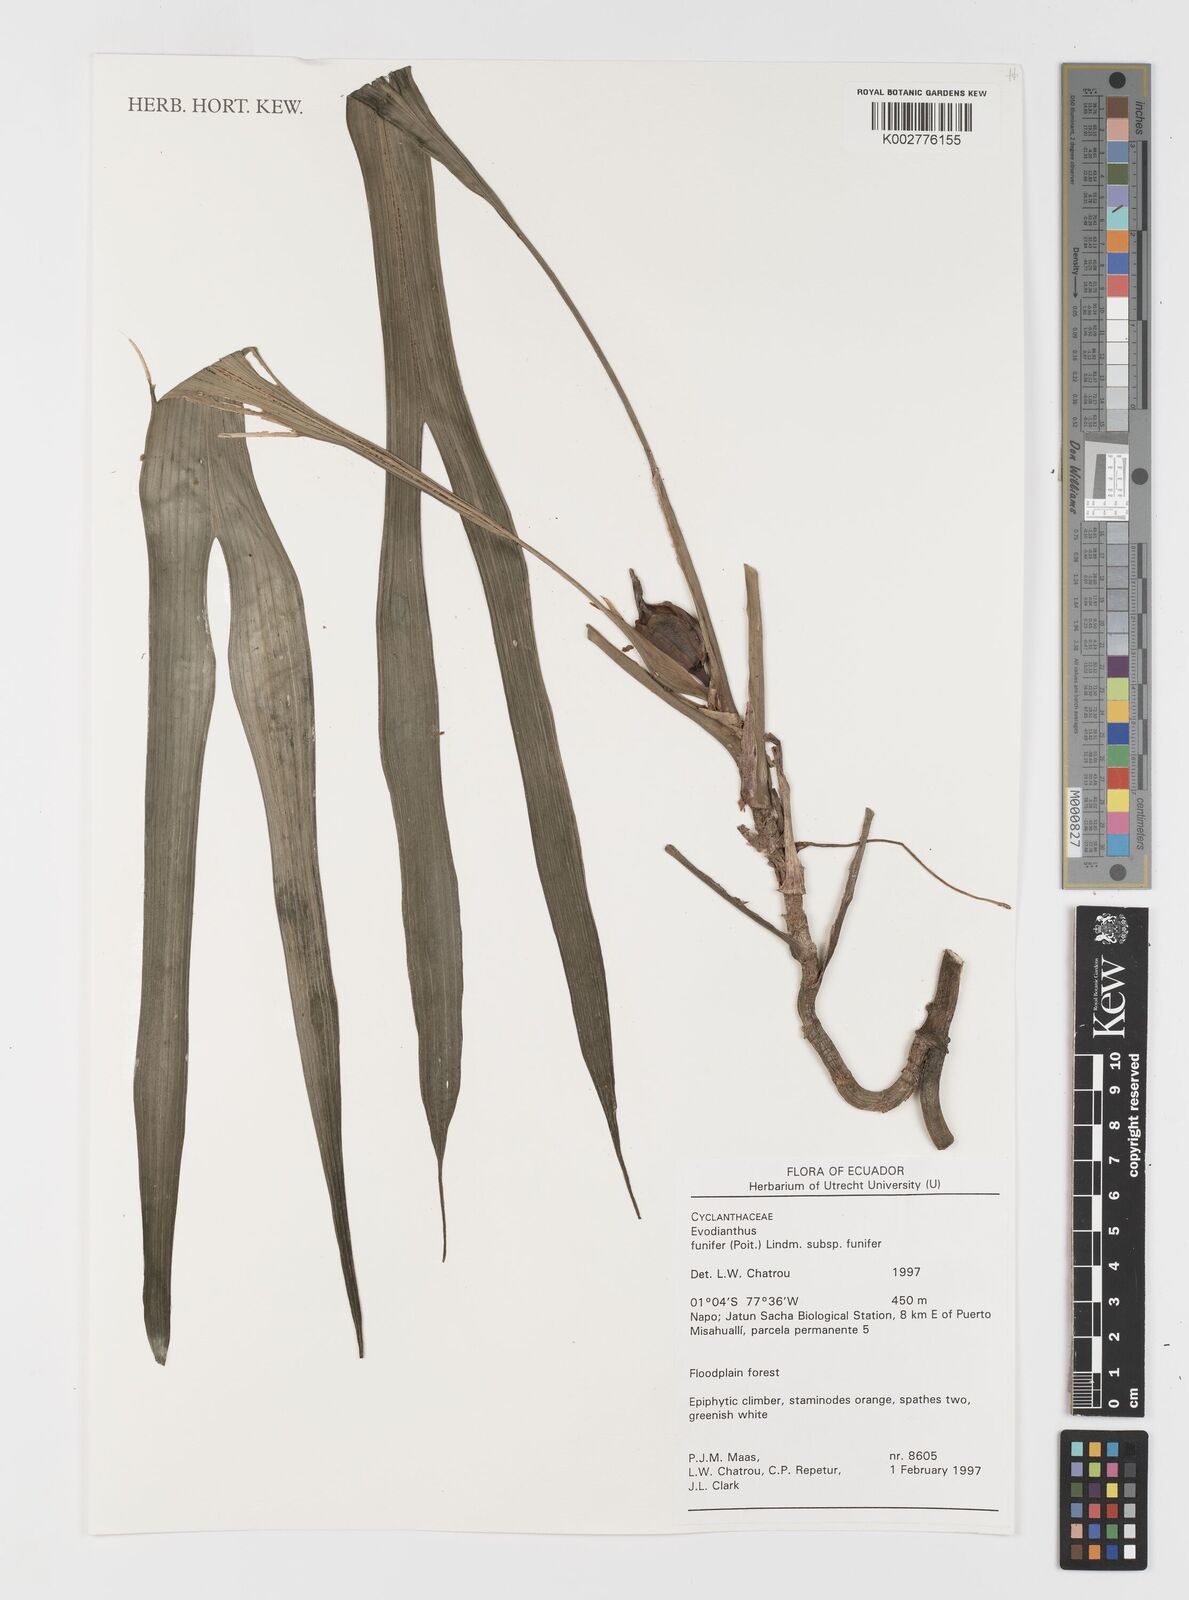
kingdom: Plantae
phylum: Tracheophyta
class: Liliopsida
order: Pandanales
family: Cyclanthaceae
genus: Evodianthus
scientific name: Evodianthus funifer
